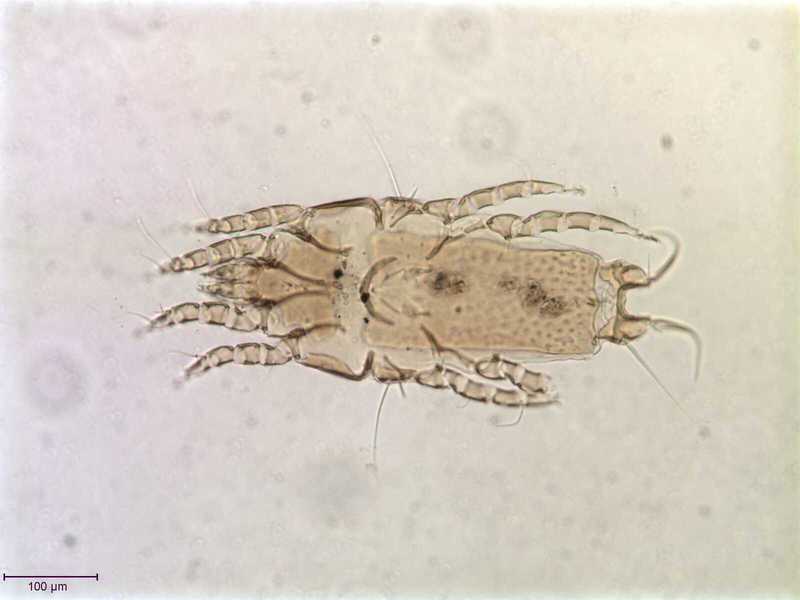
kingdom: Animalia
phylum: Arthropoda
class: Arachnida
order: Sarcoptiformes
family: Proctophyllodidae
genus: Proctophyllodes
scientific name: Proctophyllodes picae
